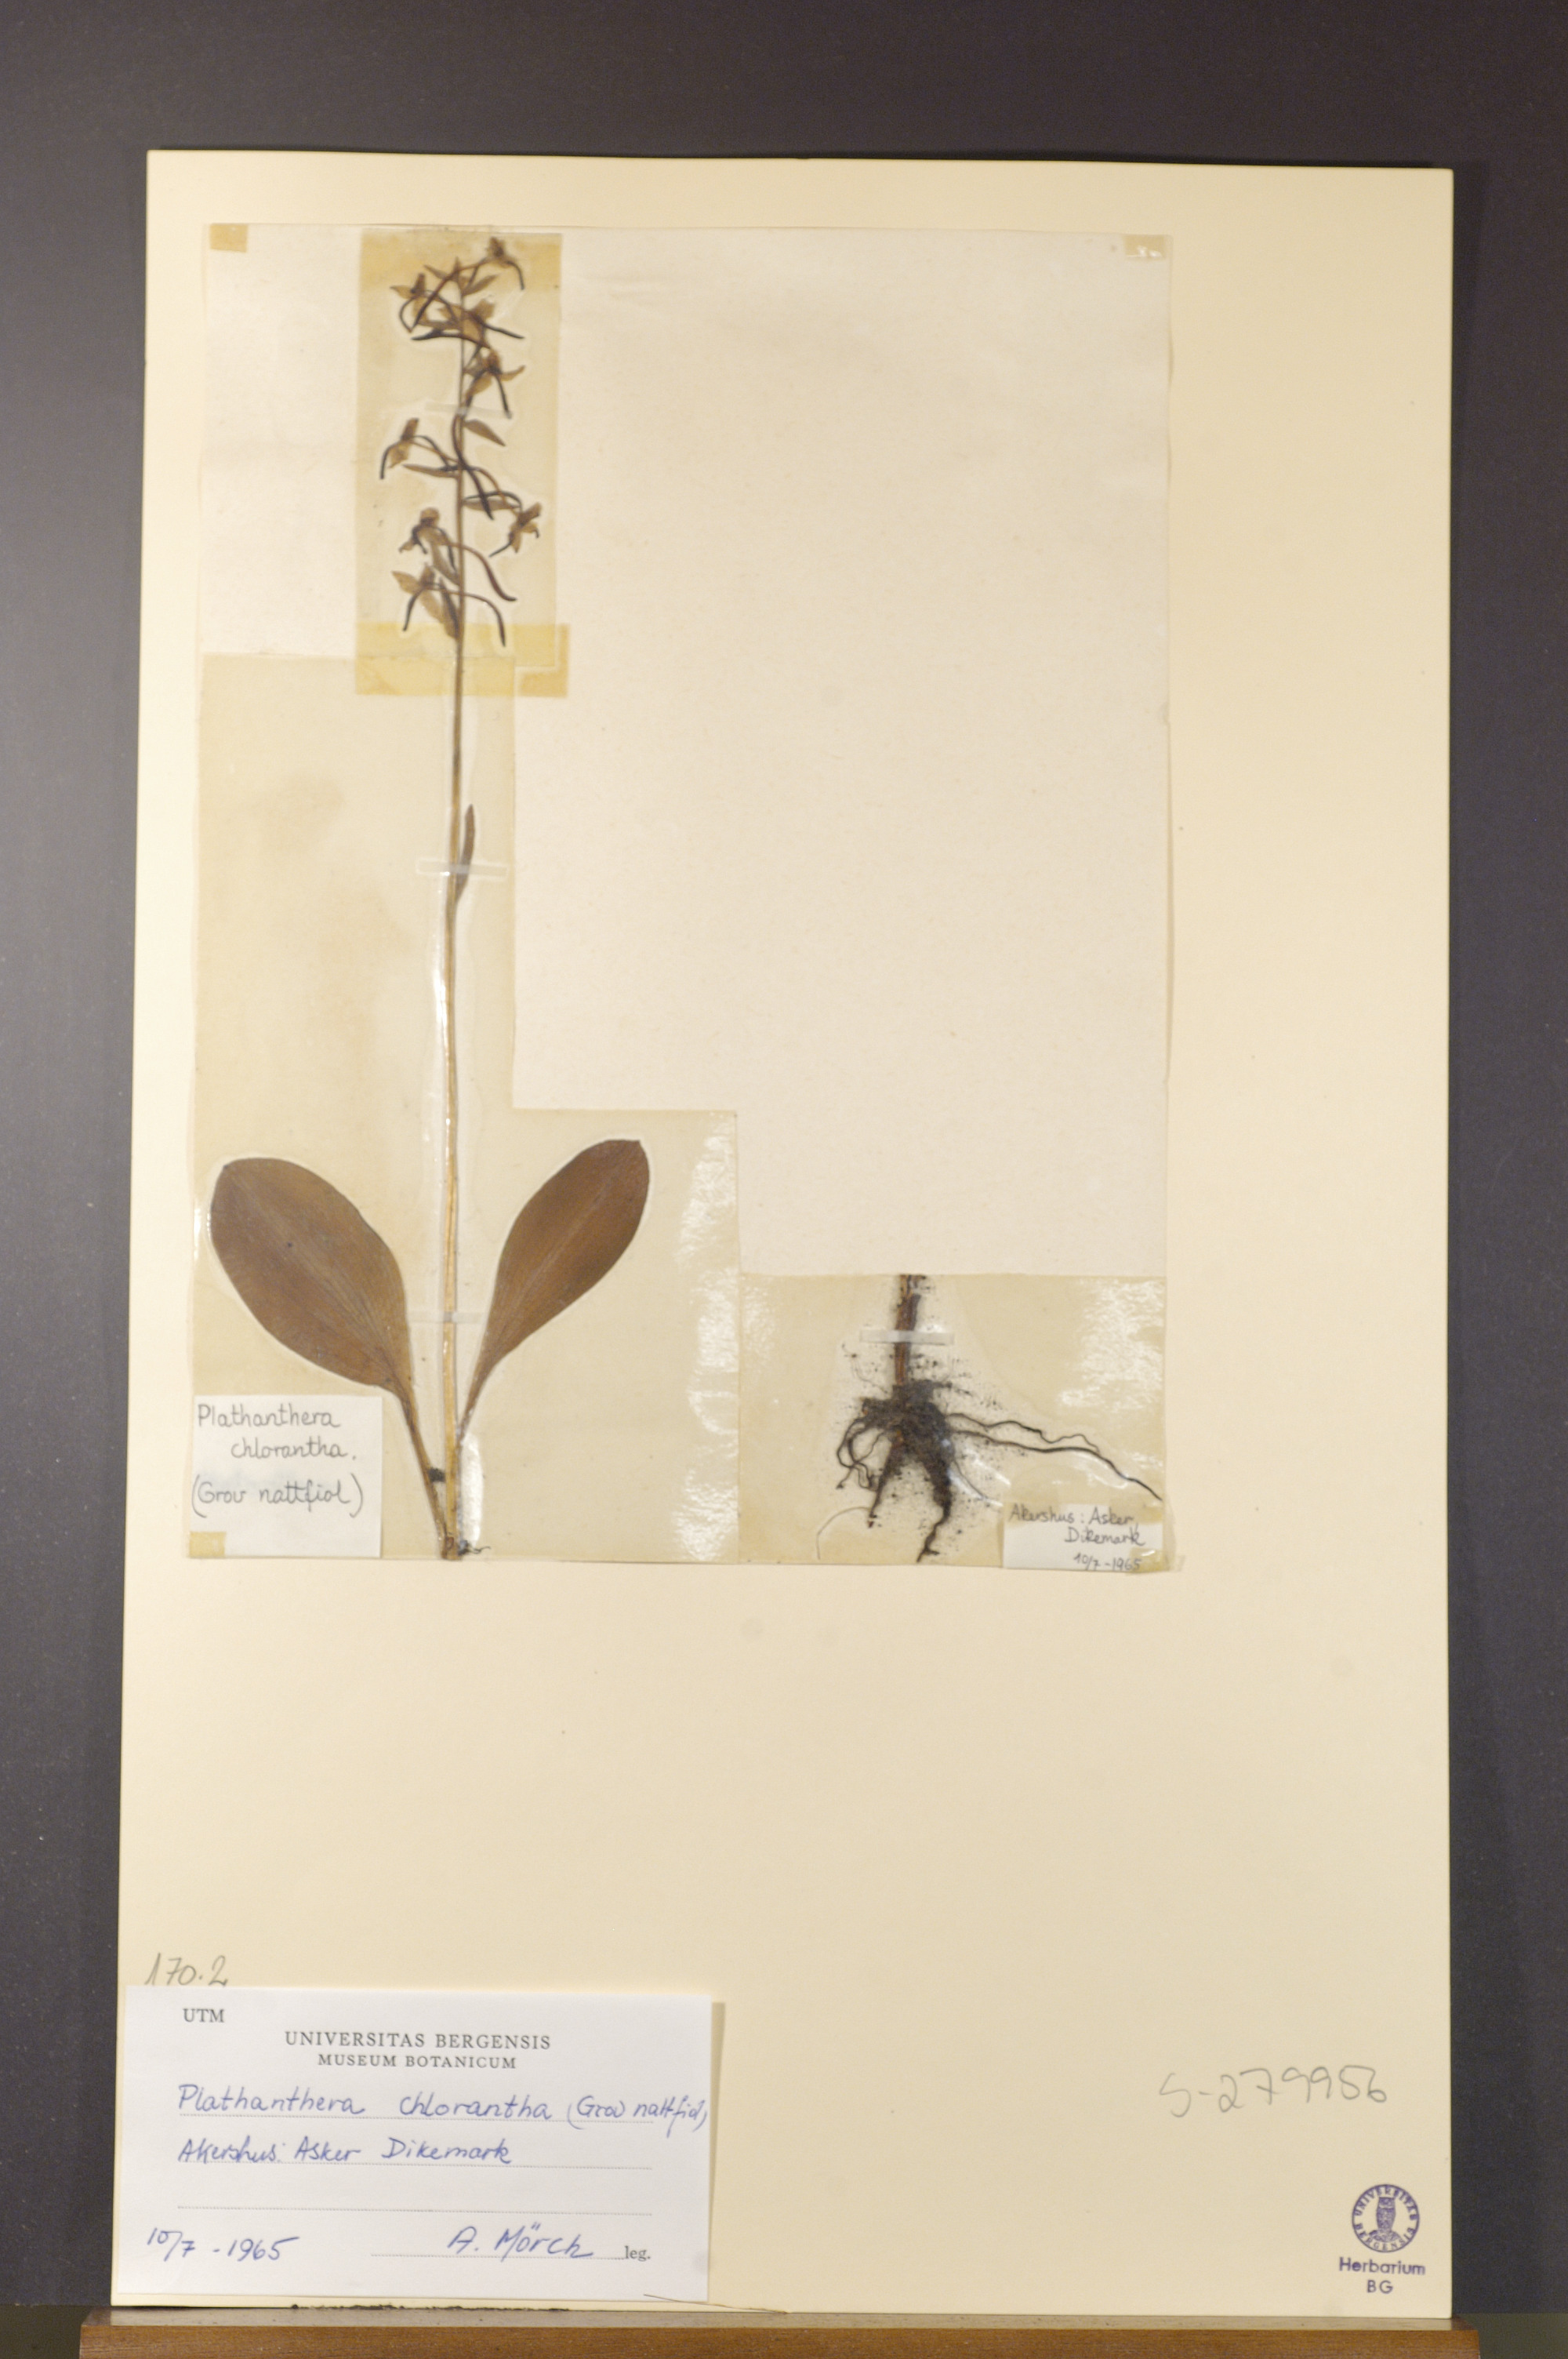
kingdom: Plantae
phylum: Tracheophyta
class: Liliopsida
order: Asparagales
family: Orchidaceae
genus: Platanthera
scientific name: Platanthera chlorantha
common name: Greater butterfly-orchid
